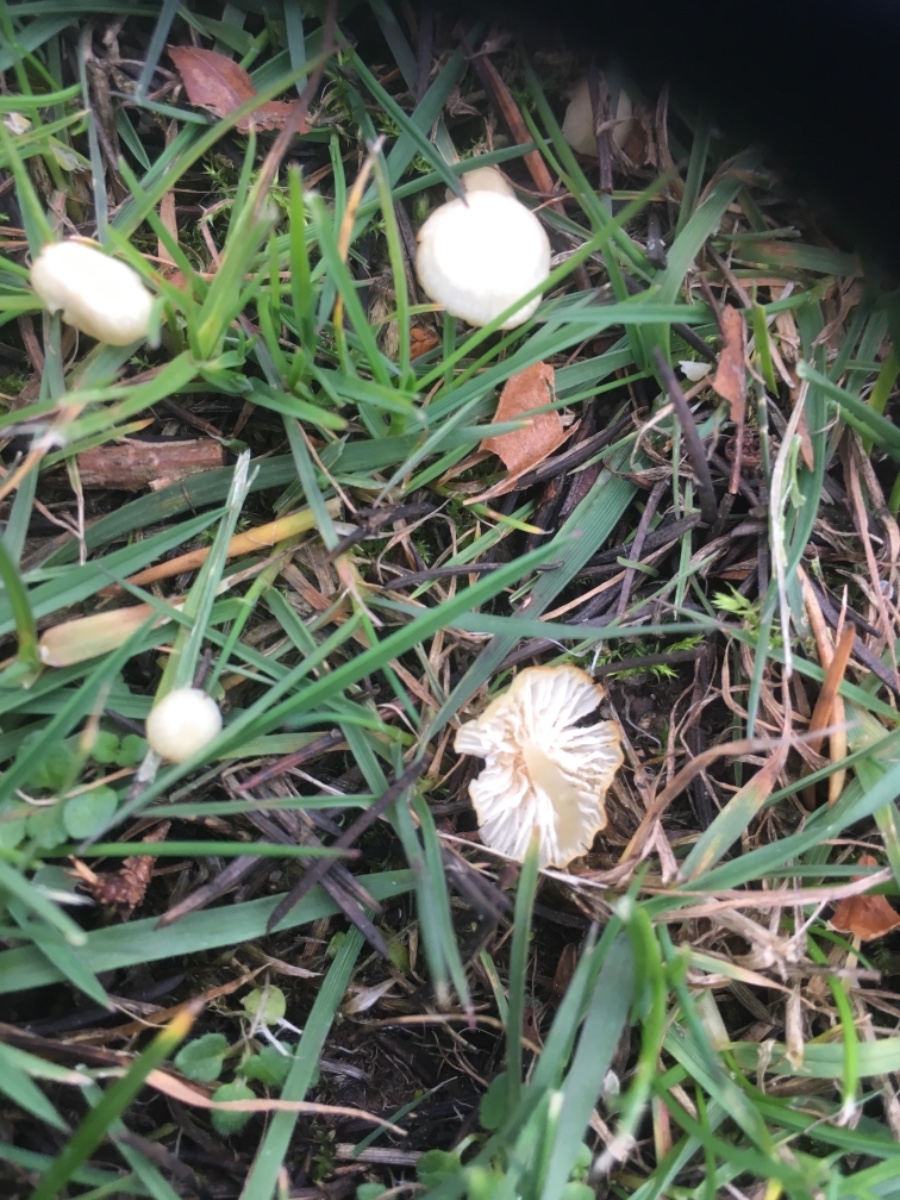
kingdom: Fungi
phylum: Basidiomycota
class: Agaricomycetes
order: Agaricales
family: Mycenaceae
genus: Atheniella
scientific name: Atheniella flavoalba
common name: gulhvid huesvamp
